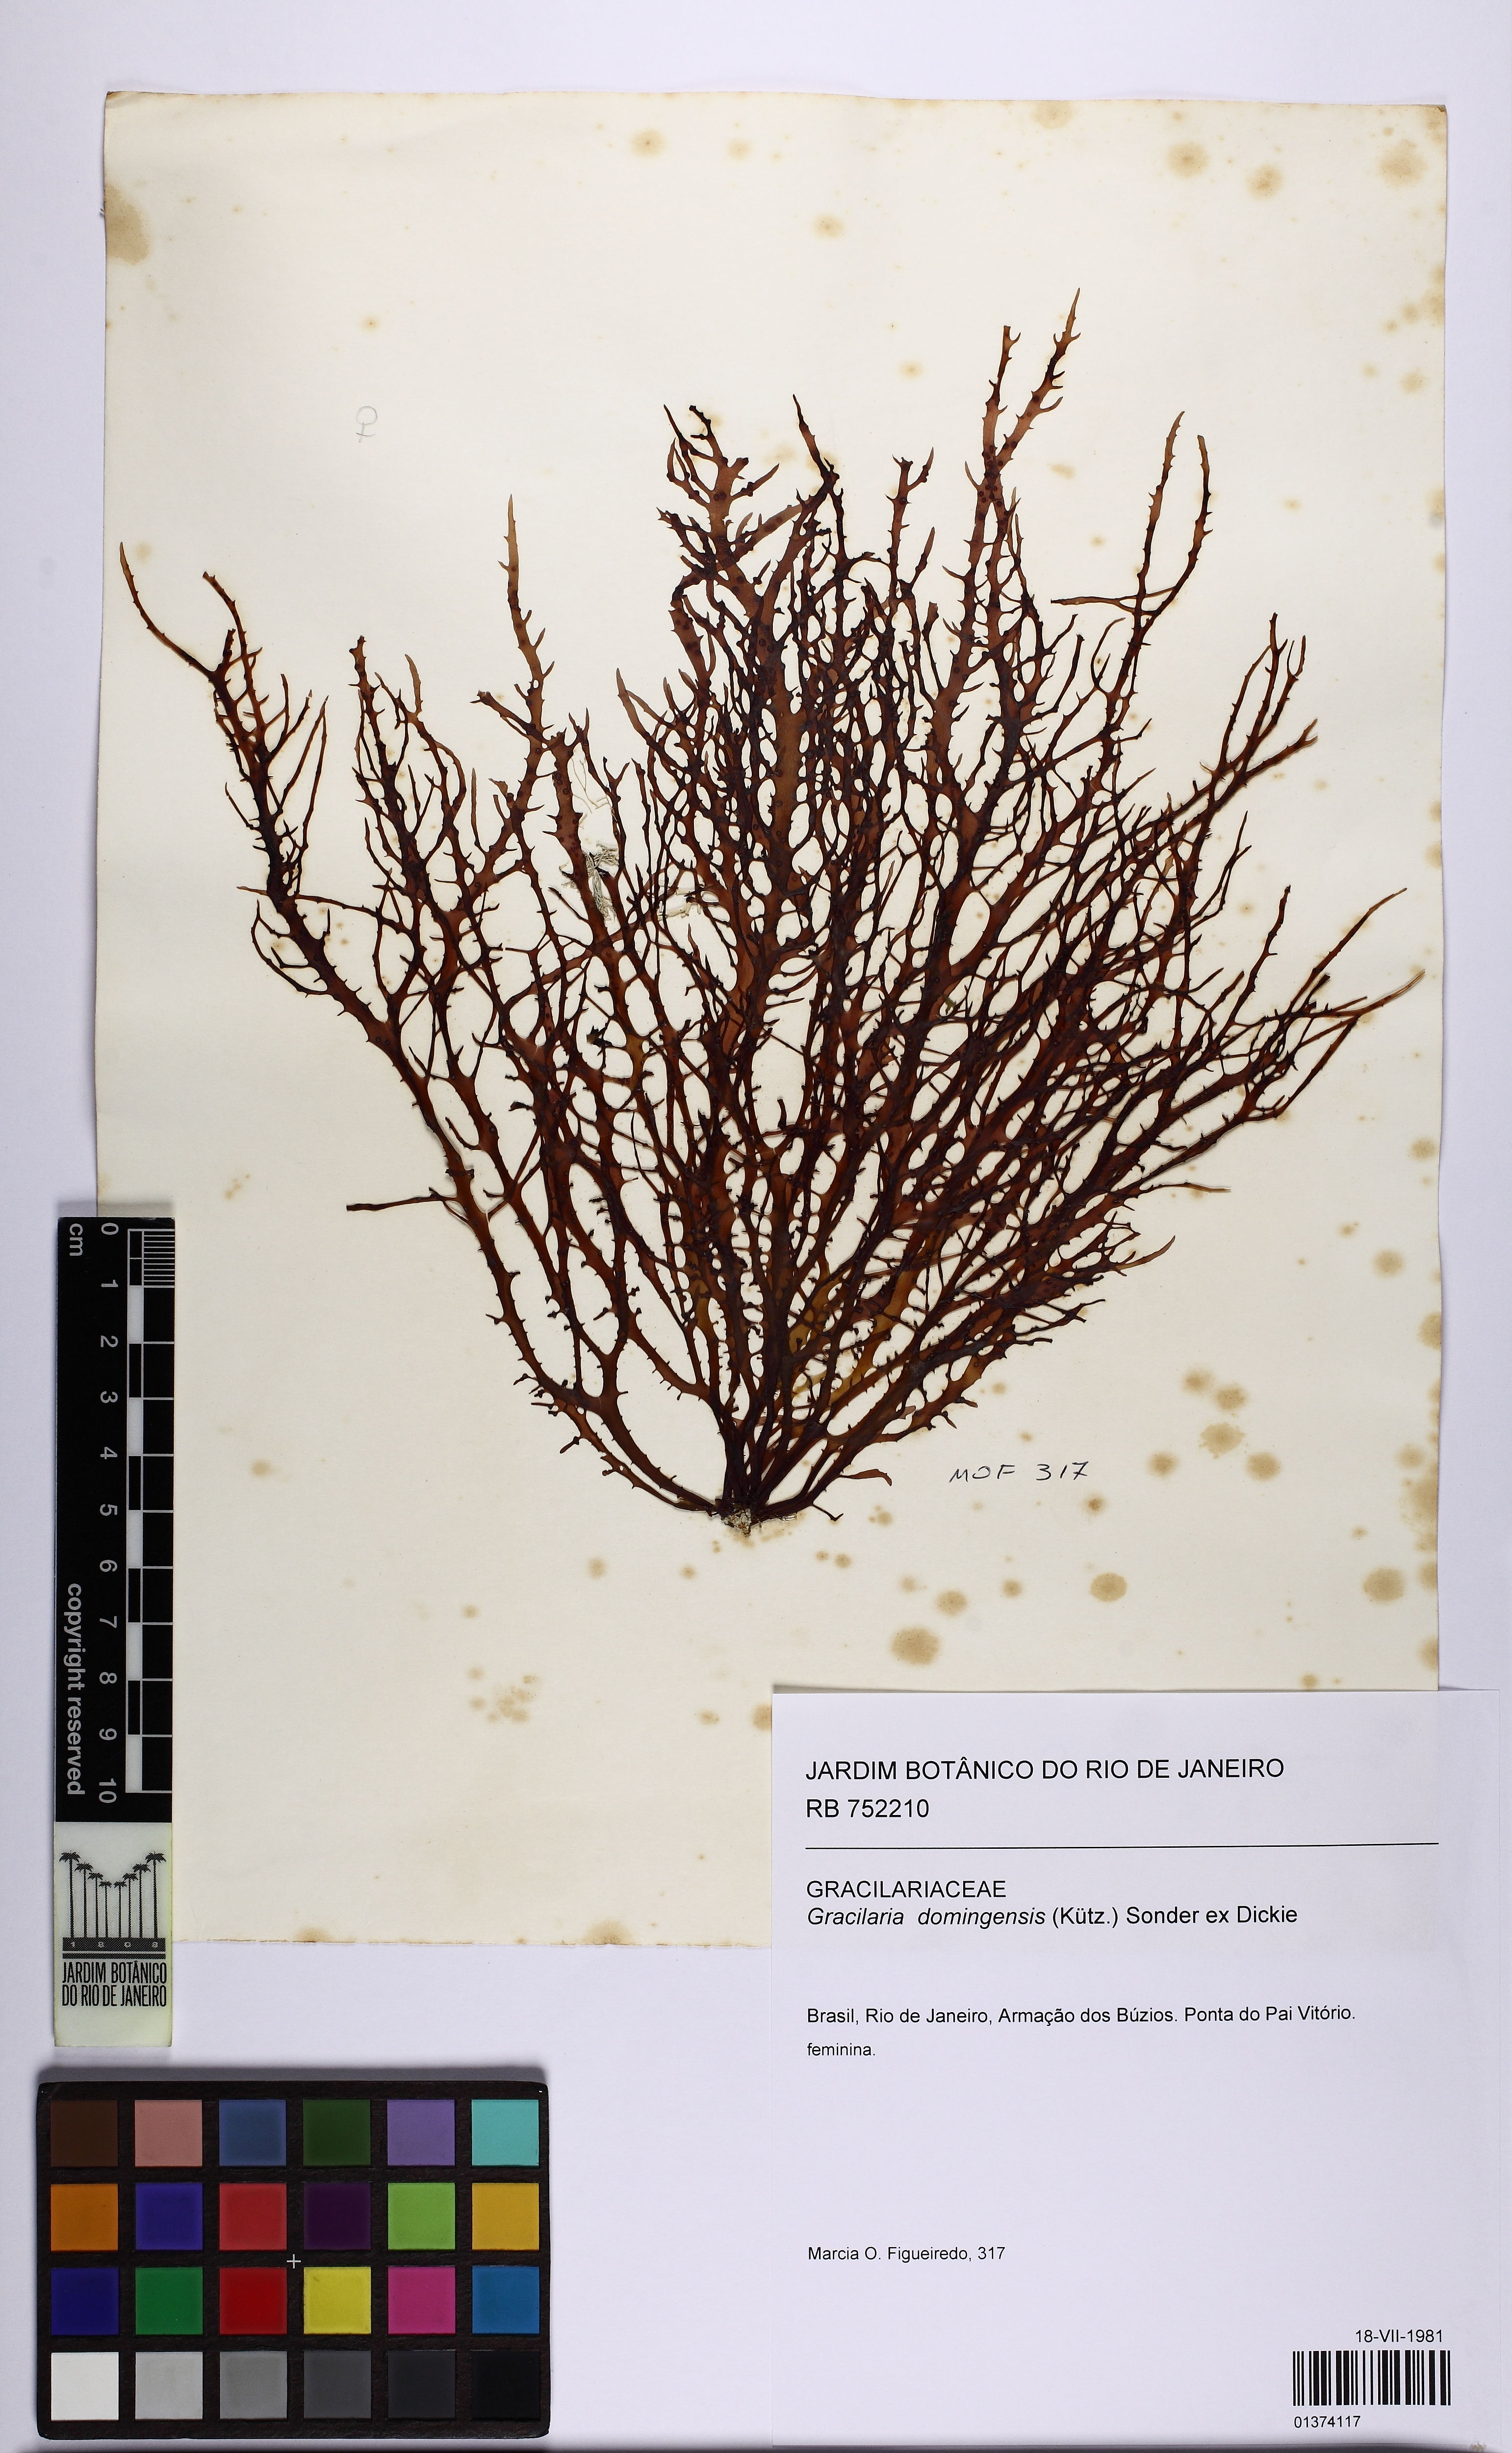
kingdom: Plantae
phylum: Rhodophyta
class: Florideophyceae
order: Gracilariales
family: Gracilariaceae
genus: Gracilaria
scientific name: Gracilaria domingensis
